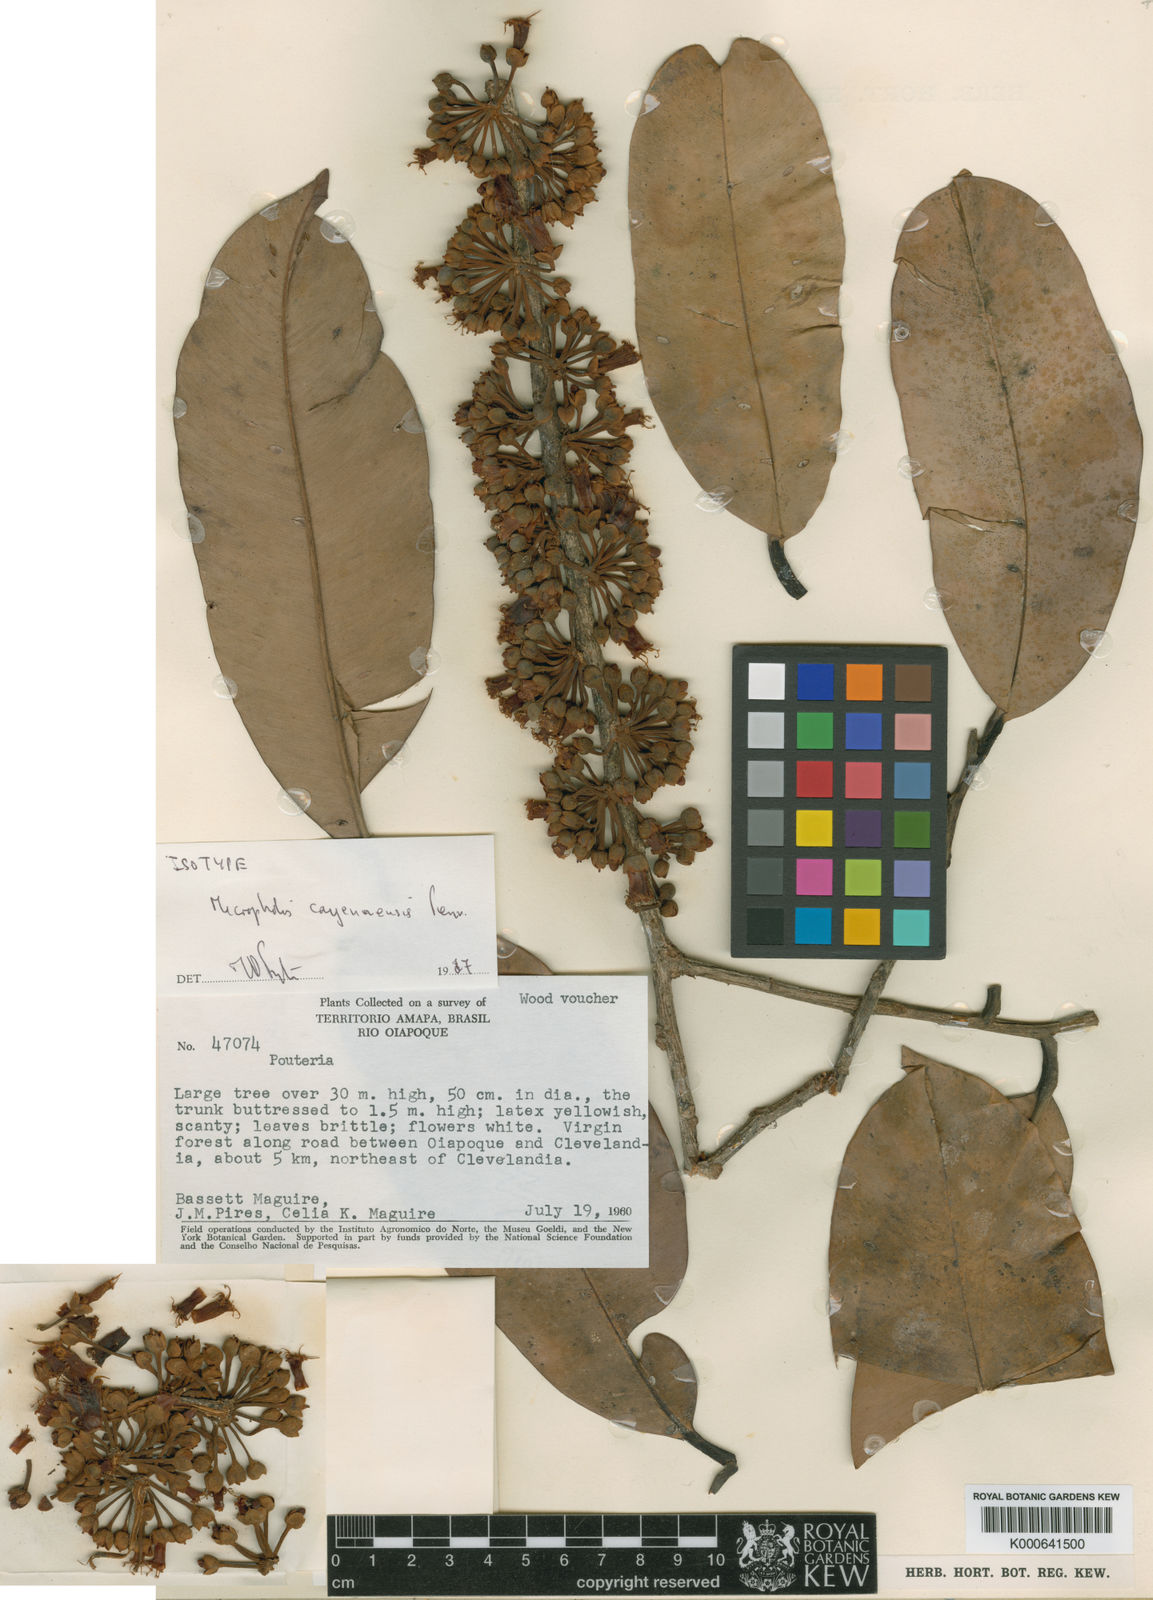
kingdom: Plantae
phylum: Tracheophyta
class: Magnoliopsida
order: Ericales
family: Sapotaceae
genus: Micropholis
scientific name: Micropholis cayennensis
